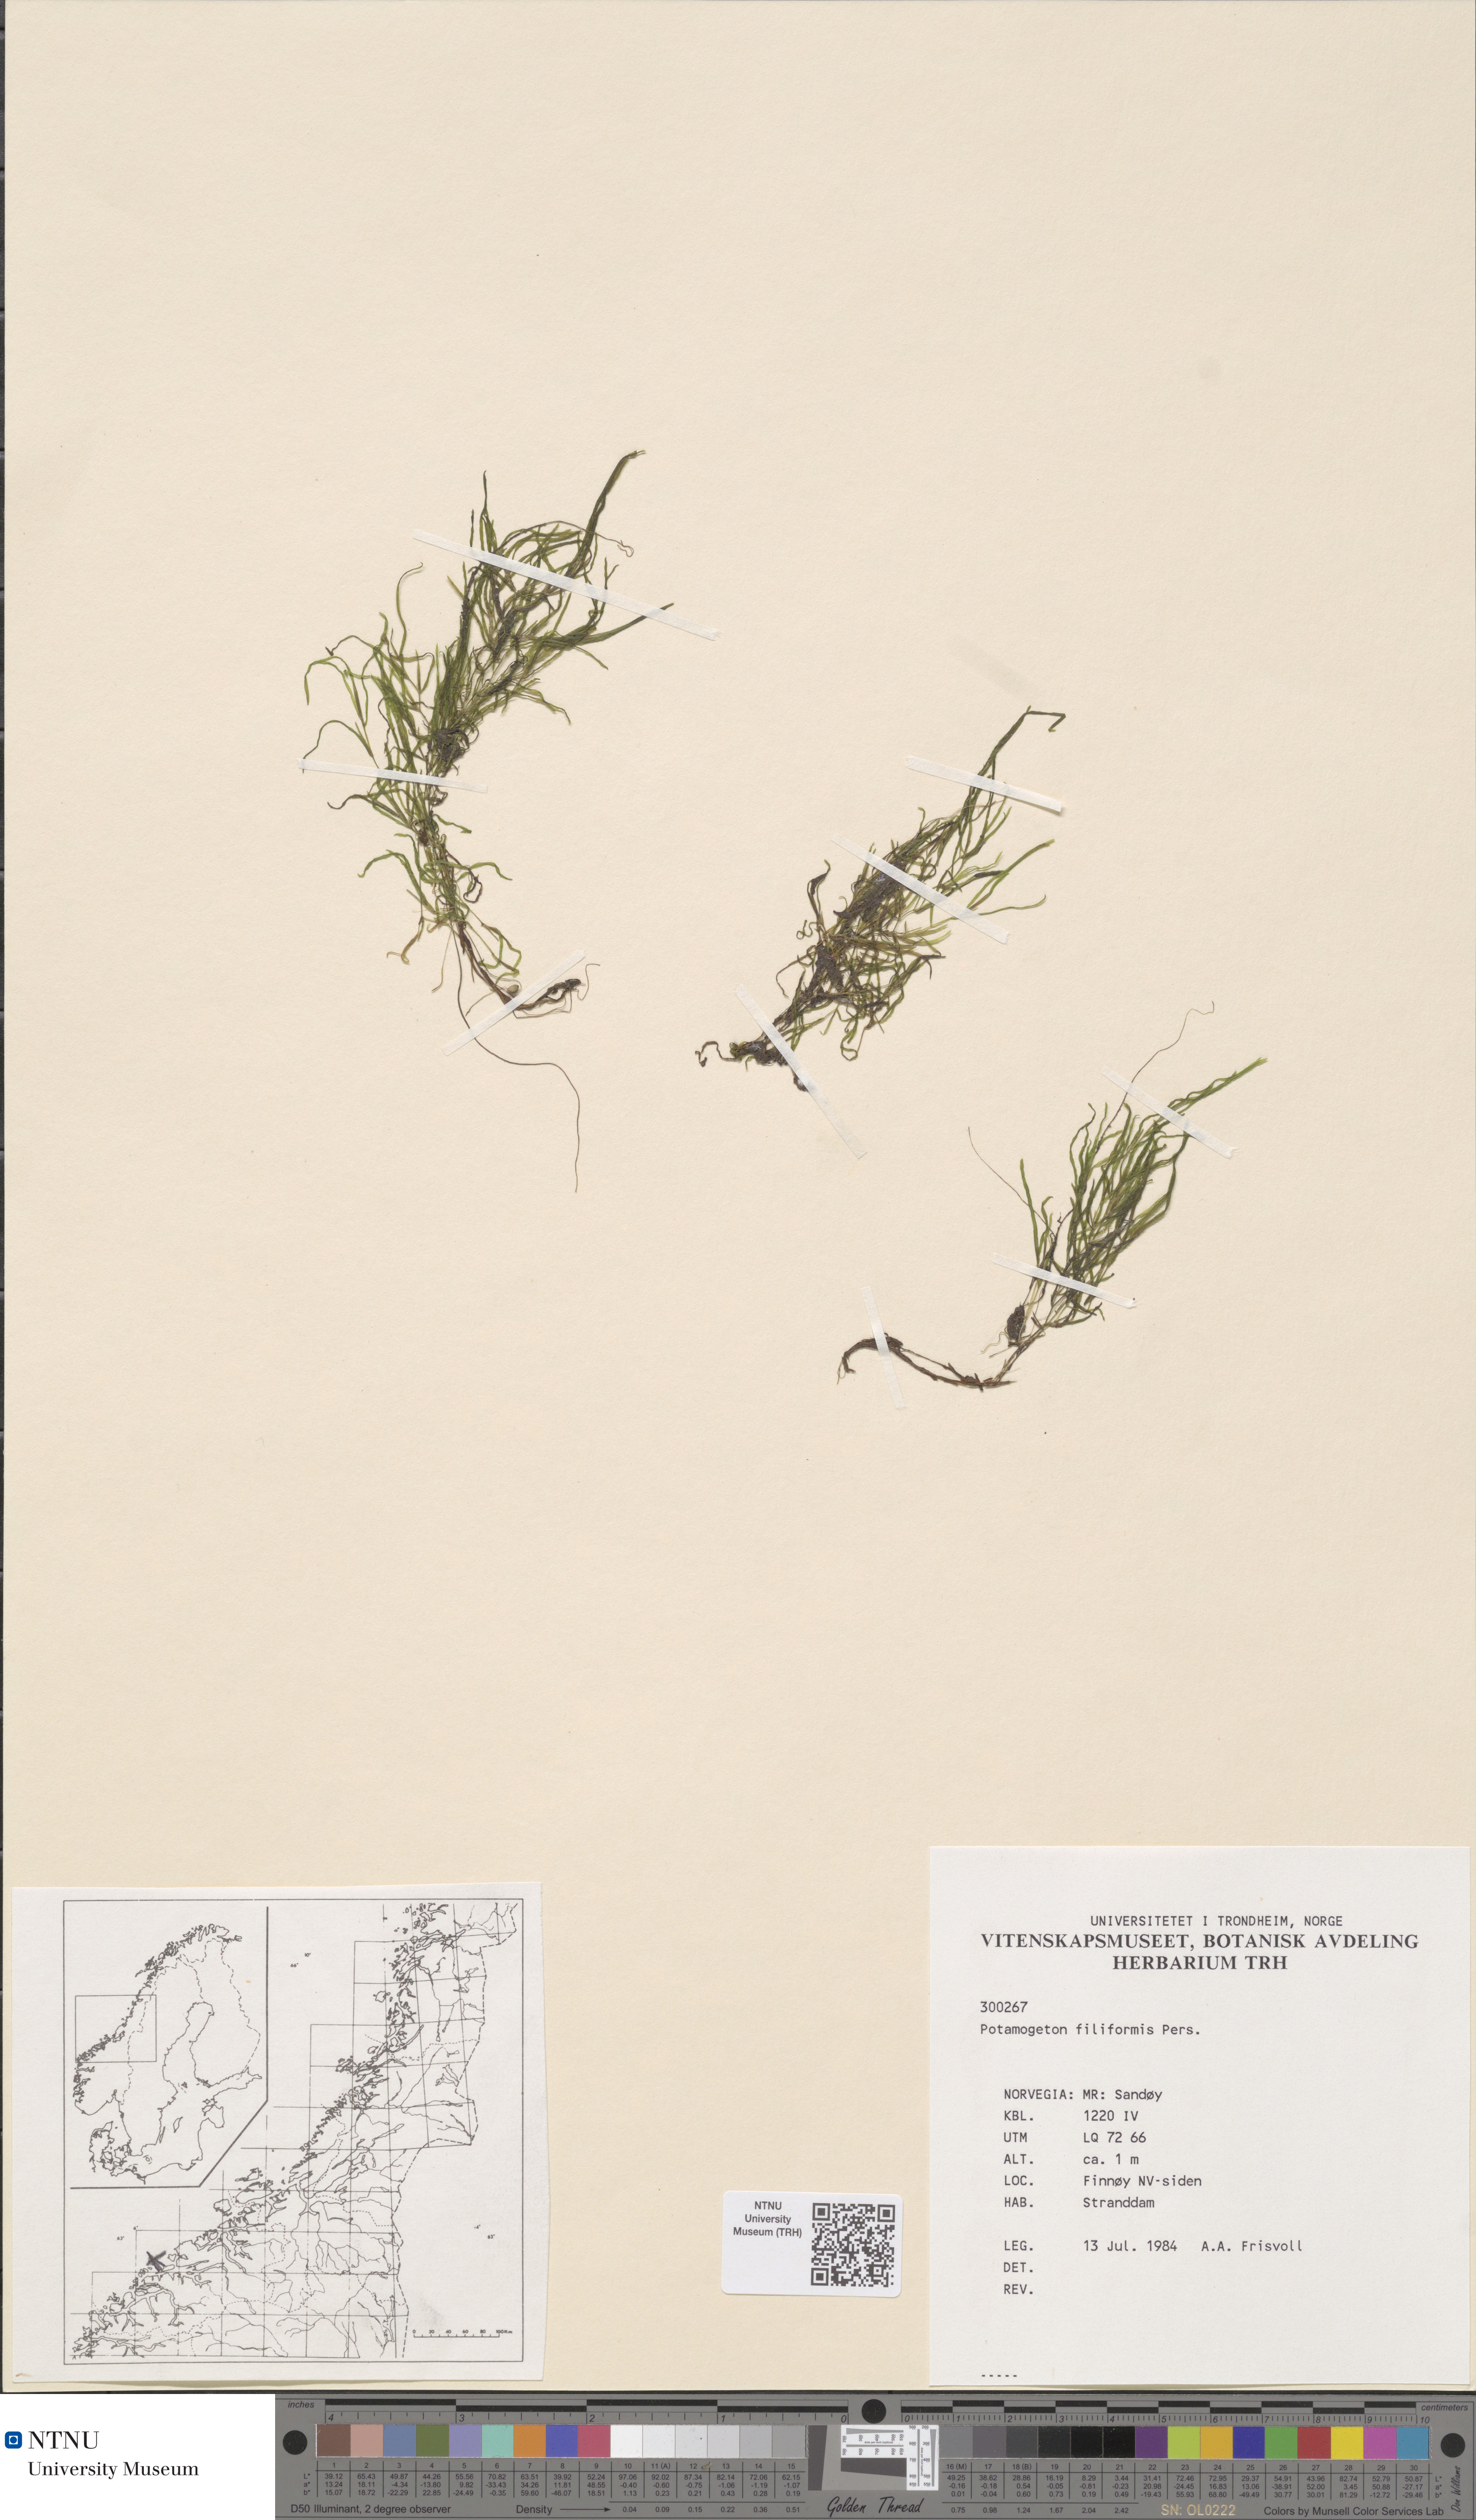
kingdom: Plantae
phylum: Tracheophyta
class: Liliopsida
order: Alismatales
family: Potamogetonaceae
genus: Stuckenia
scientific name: Stuckenia filiformis
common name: Alpine thread-leaved pondweed
